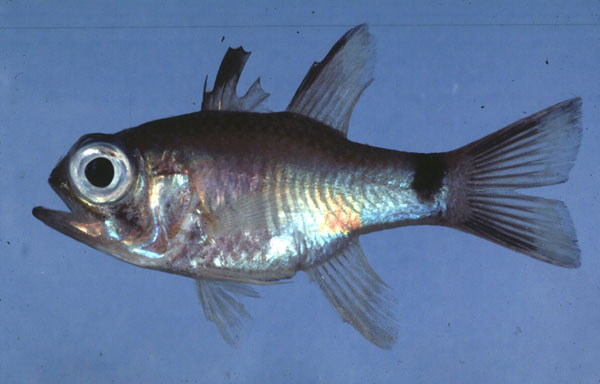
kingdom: Animalia
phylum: Chordata
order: Perciformes
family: Apogonidae
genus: Nectamia
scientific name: Nectamia savayensis
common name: Samoan cardinalfish
